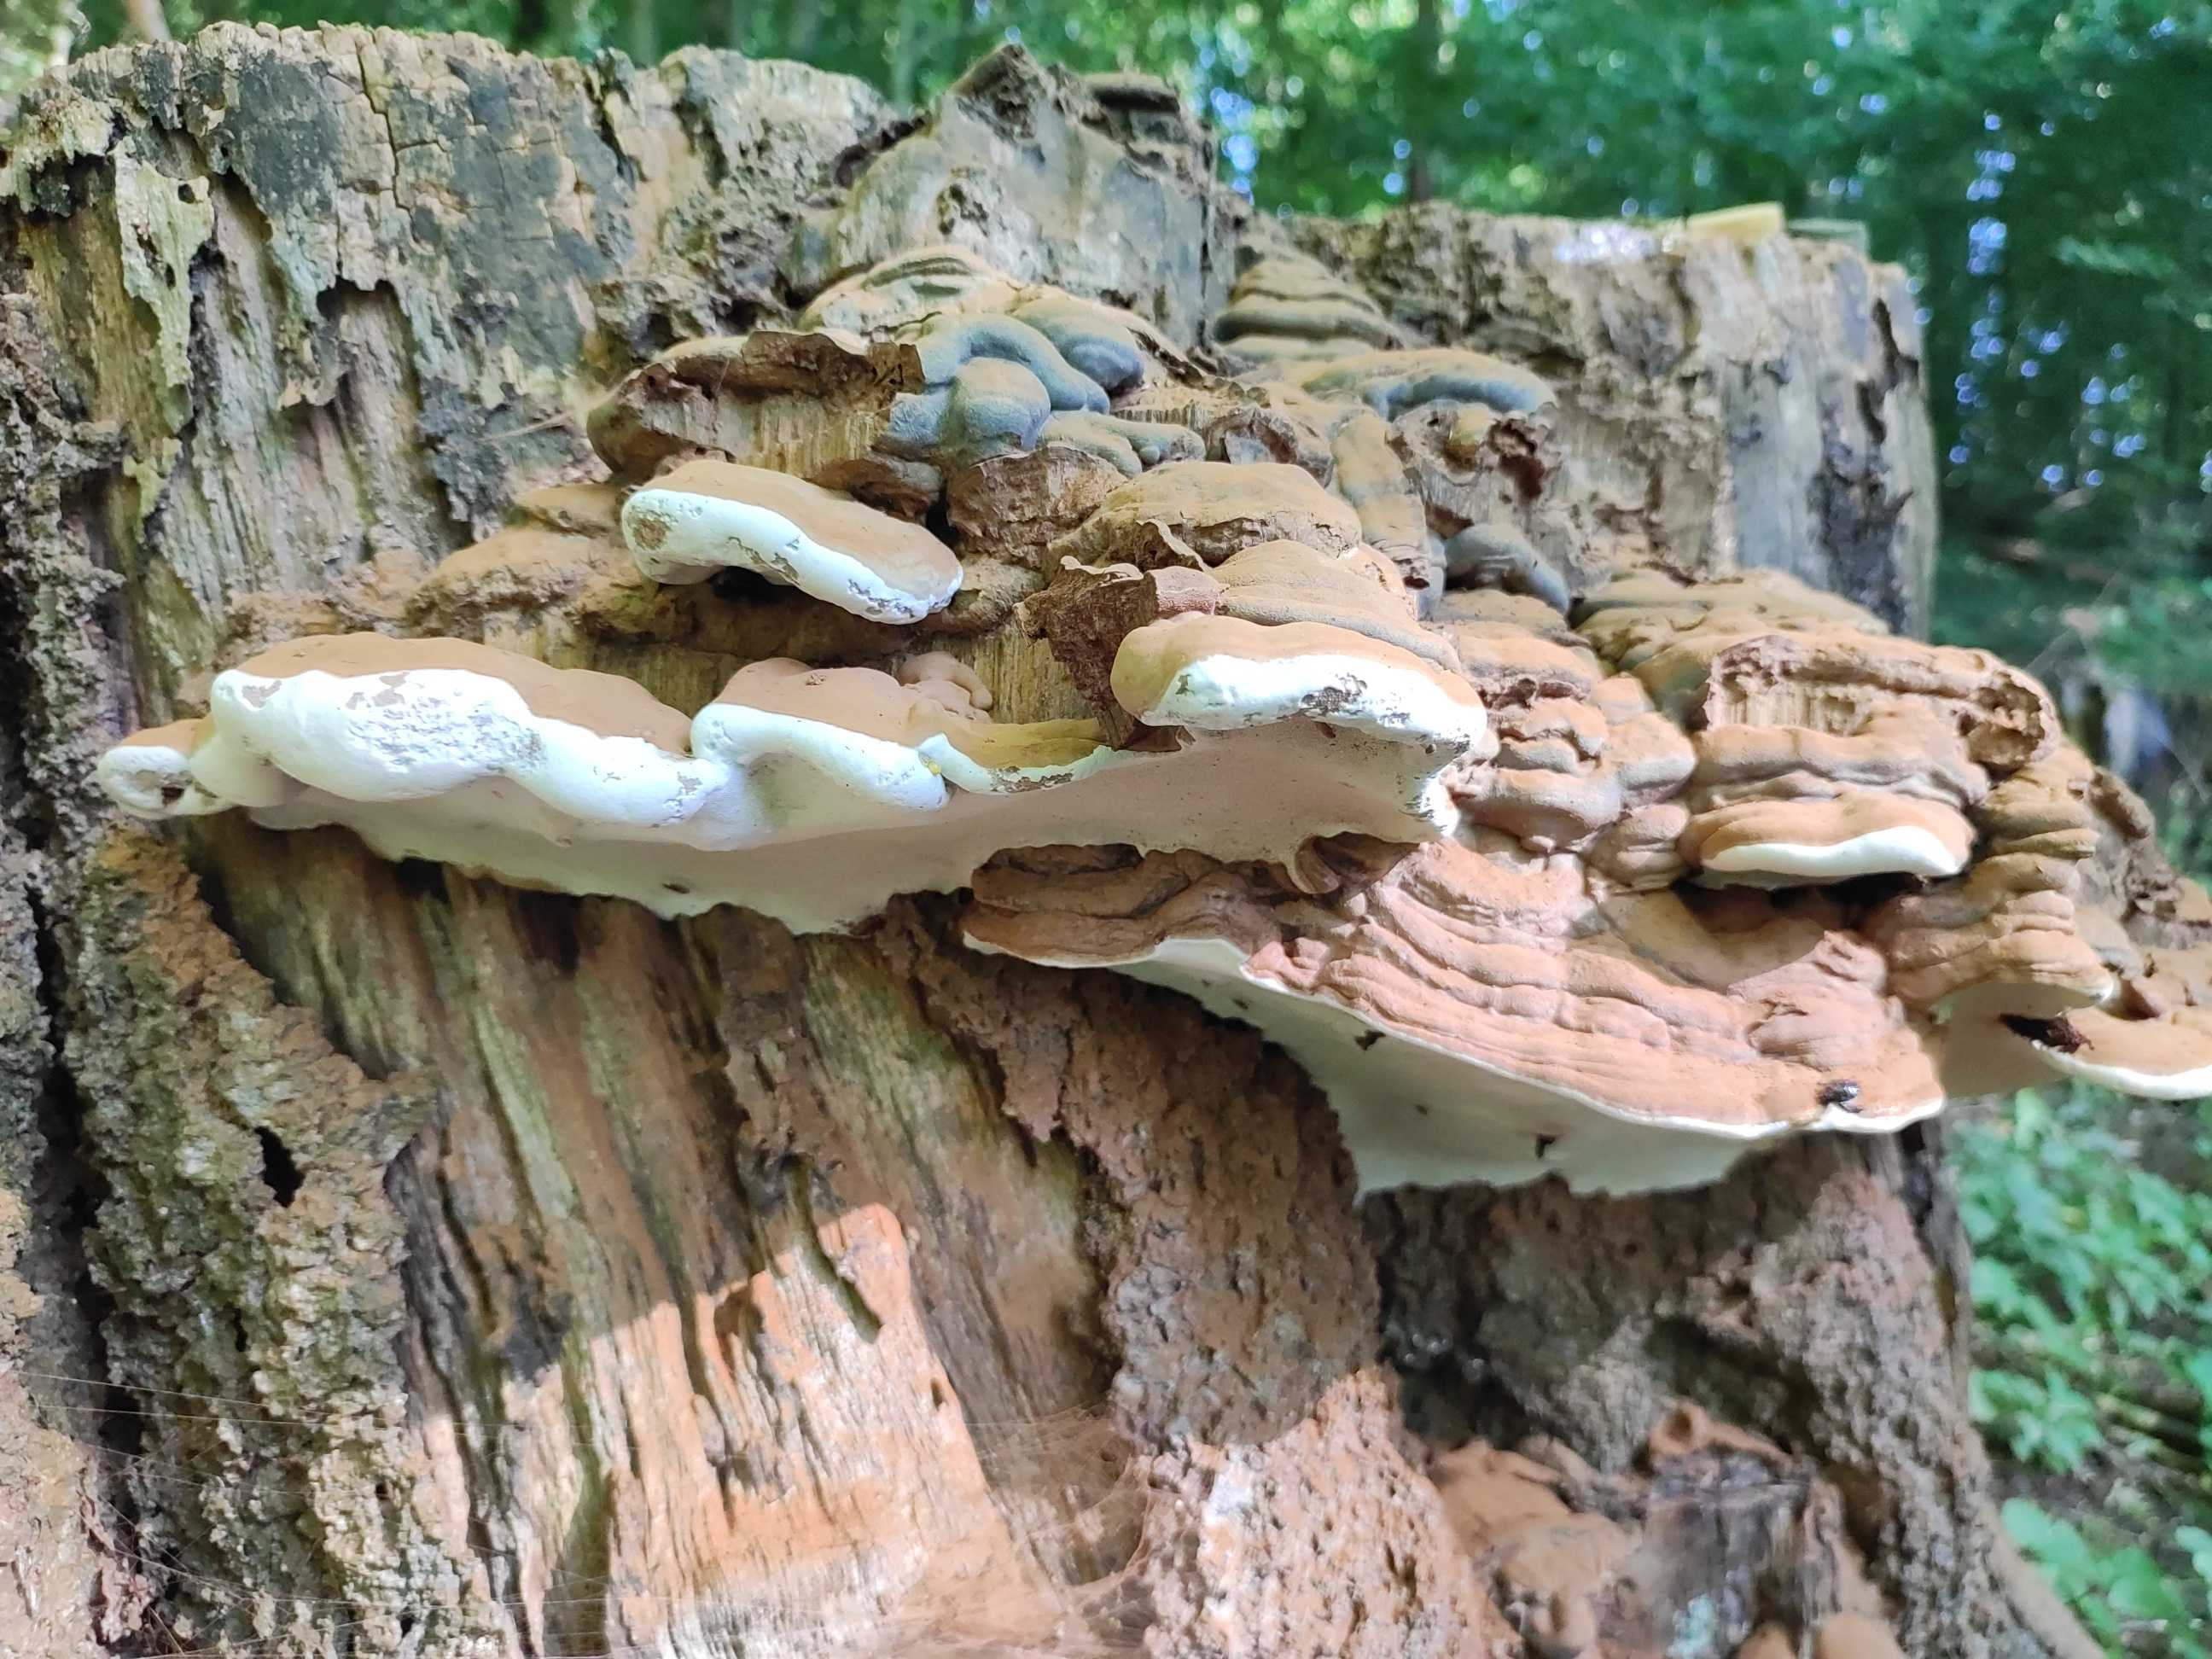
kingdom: Fungi
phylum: Basidiomycota
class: Agaricomycetes
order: Polyporales
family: Polyporaceae
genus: Ganoderma
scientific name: Ganoderma applanatum
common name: flad lakporesvamp
